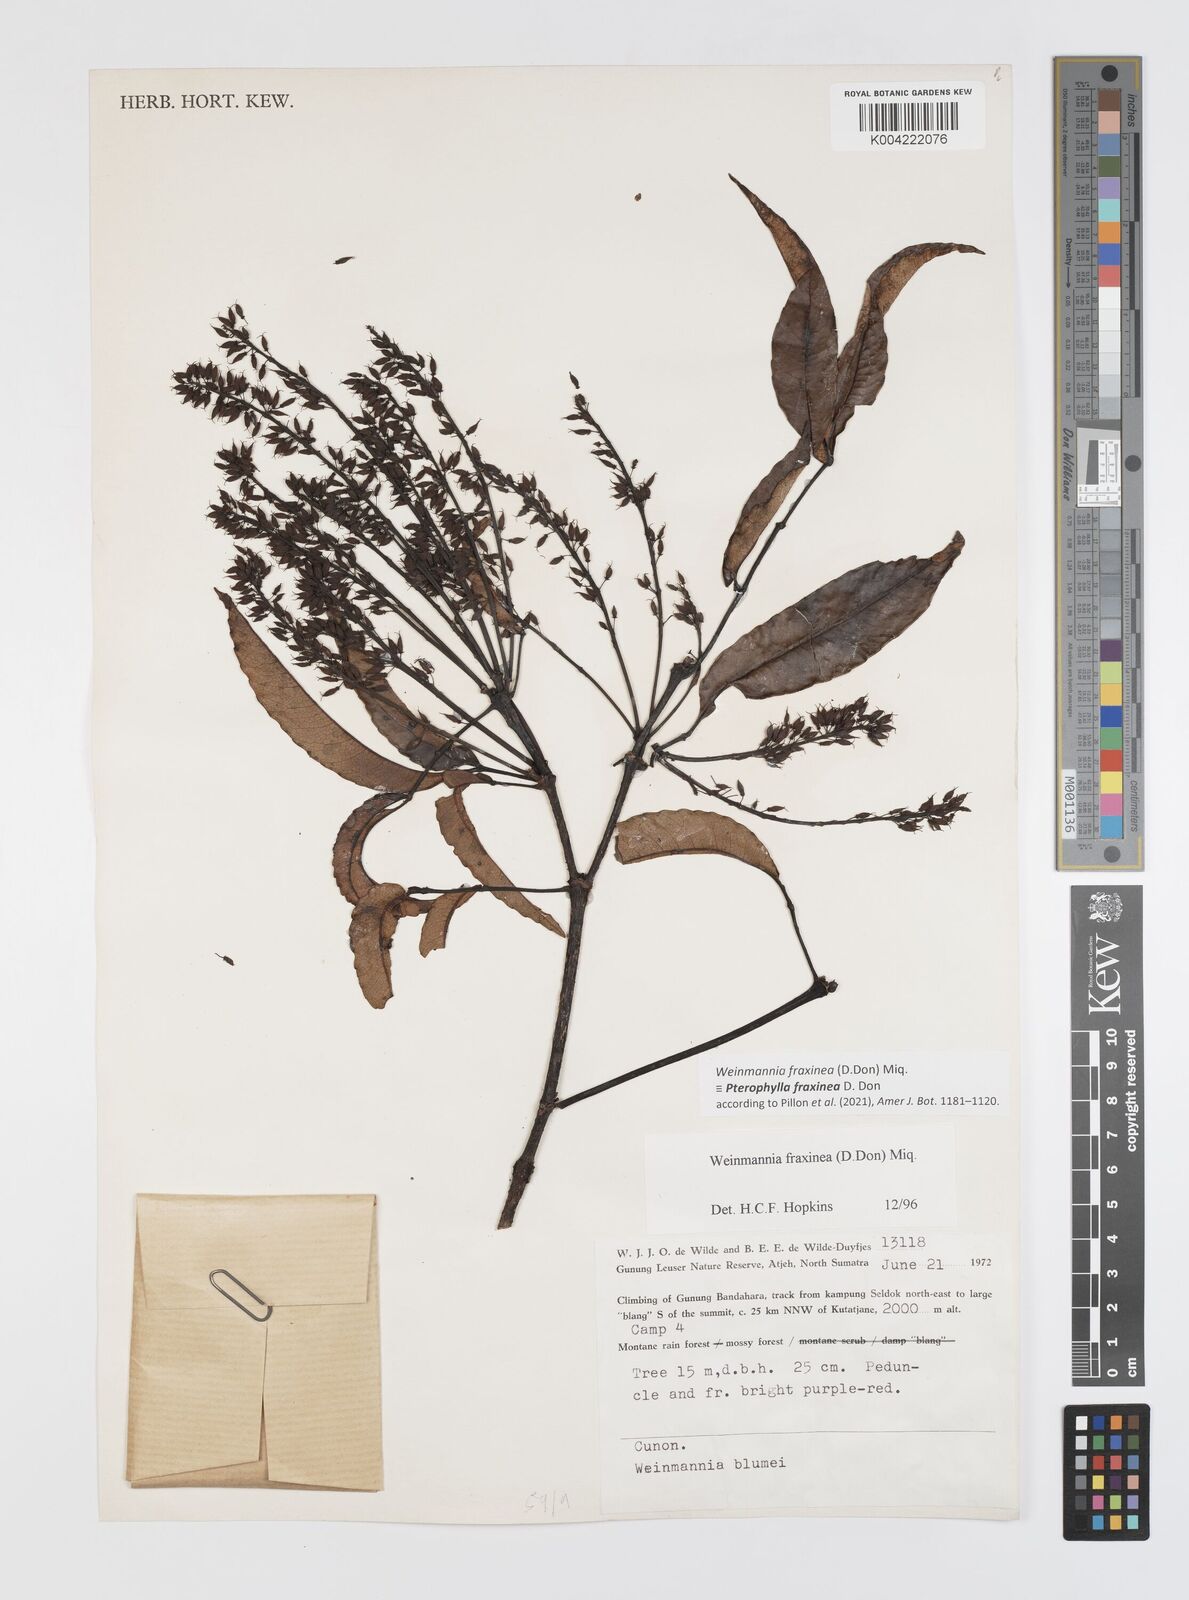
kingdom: Plantae
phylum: Tracheophyta
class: Magnoliopsida
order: Oxalidales
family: Cunoniaceae
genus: Pterophylla
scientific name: Pterophylla fraxinea
